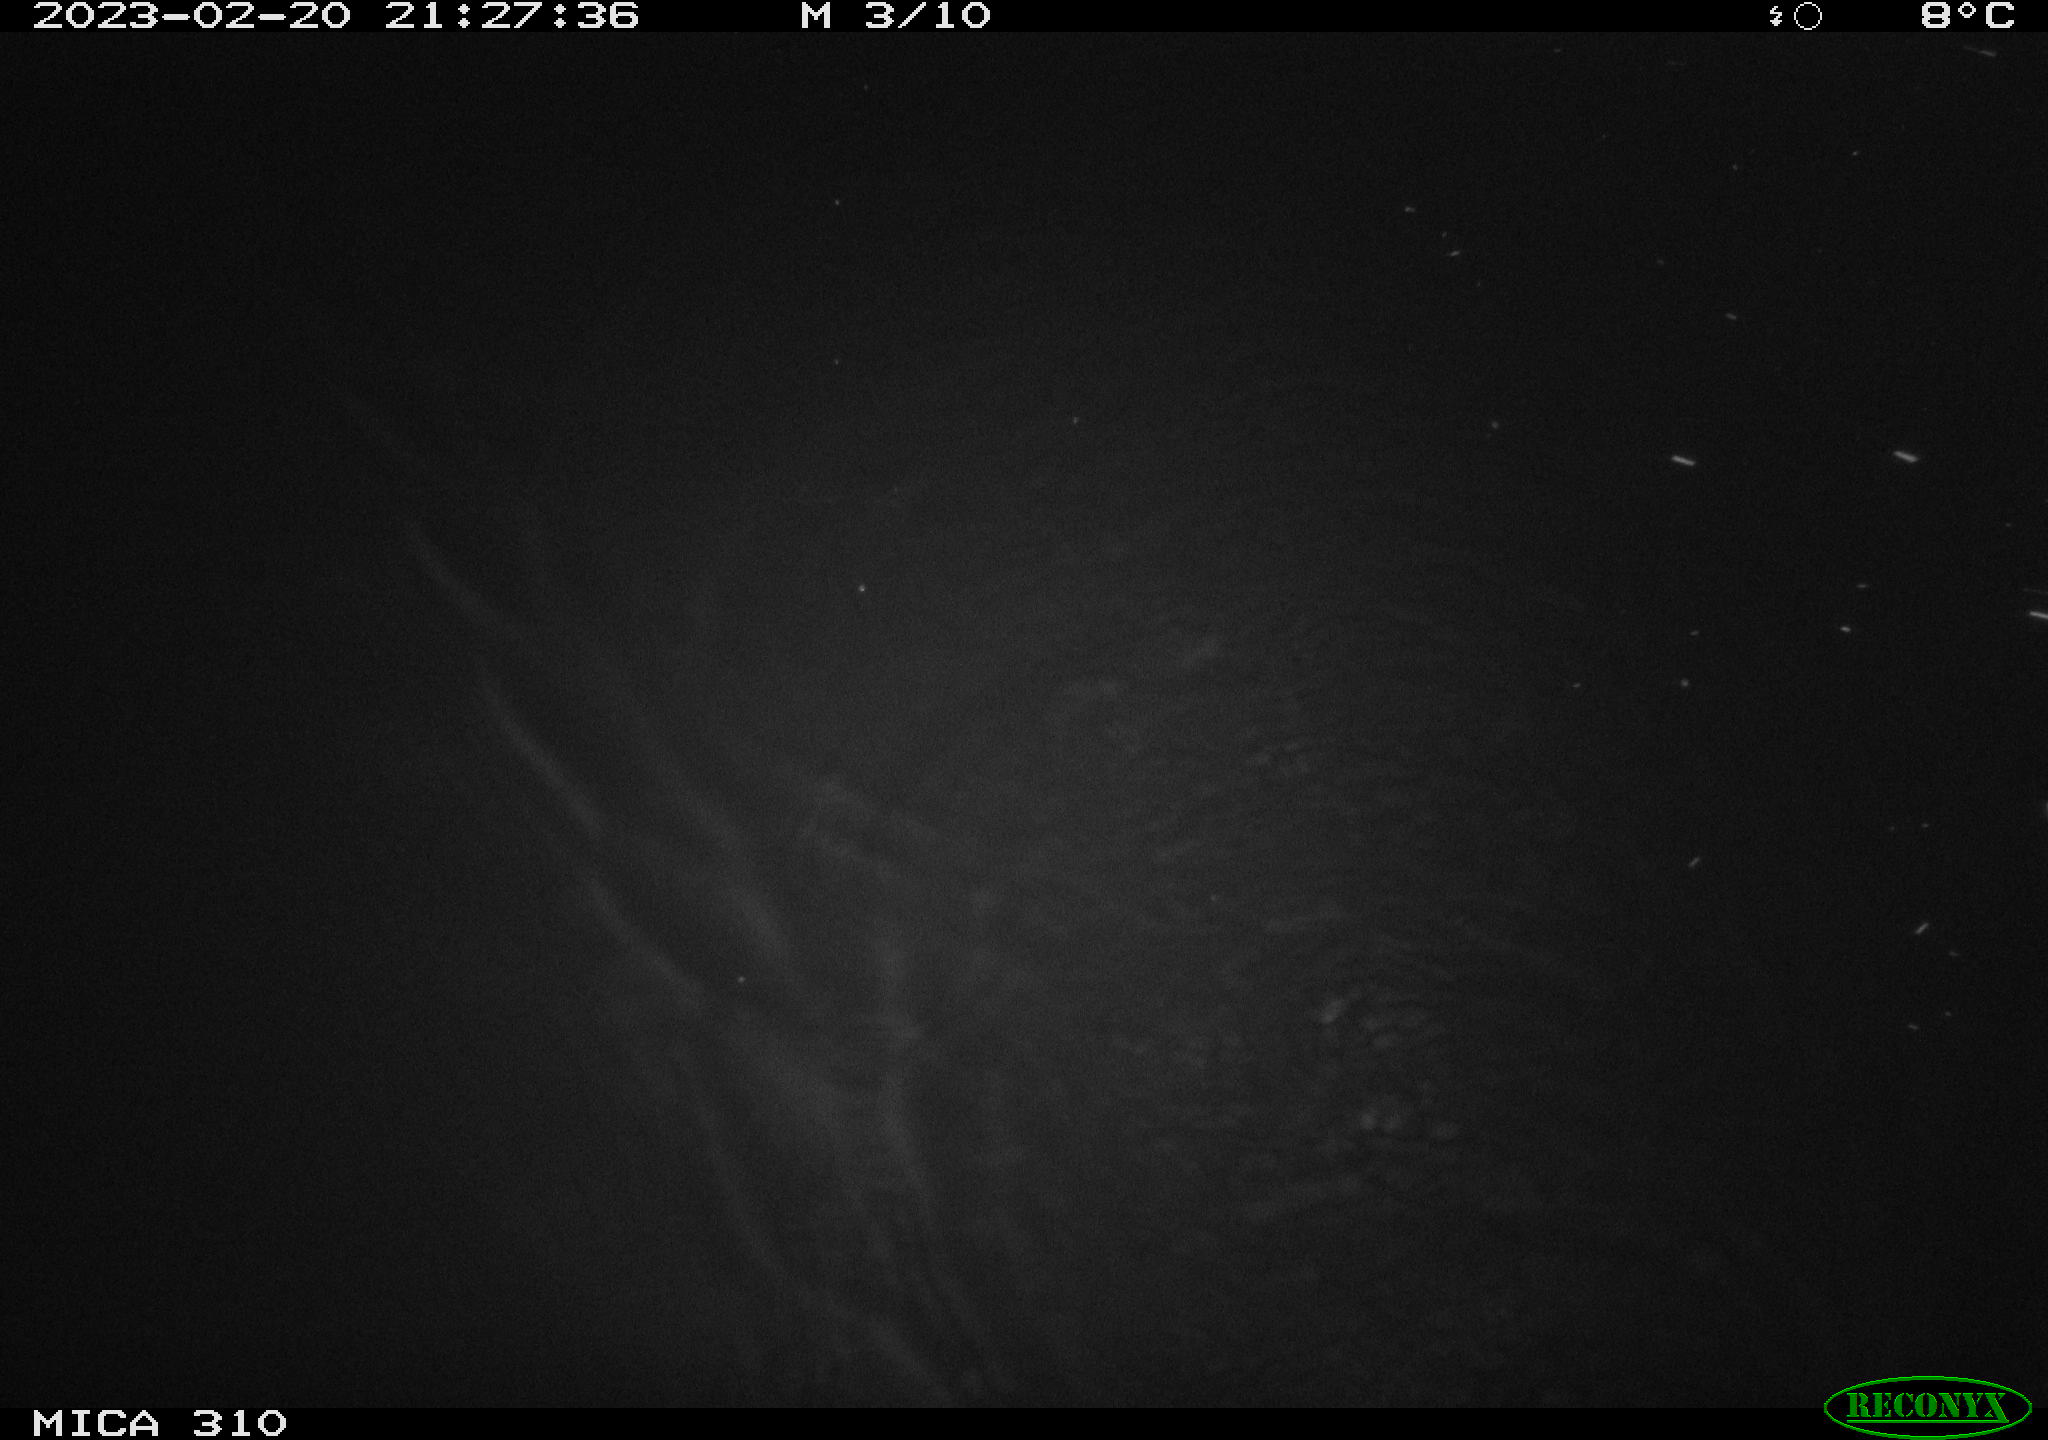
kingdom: Animalia
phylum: Chordata
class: Mammalia
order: Rodentia
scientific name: Rodentia
